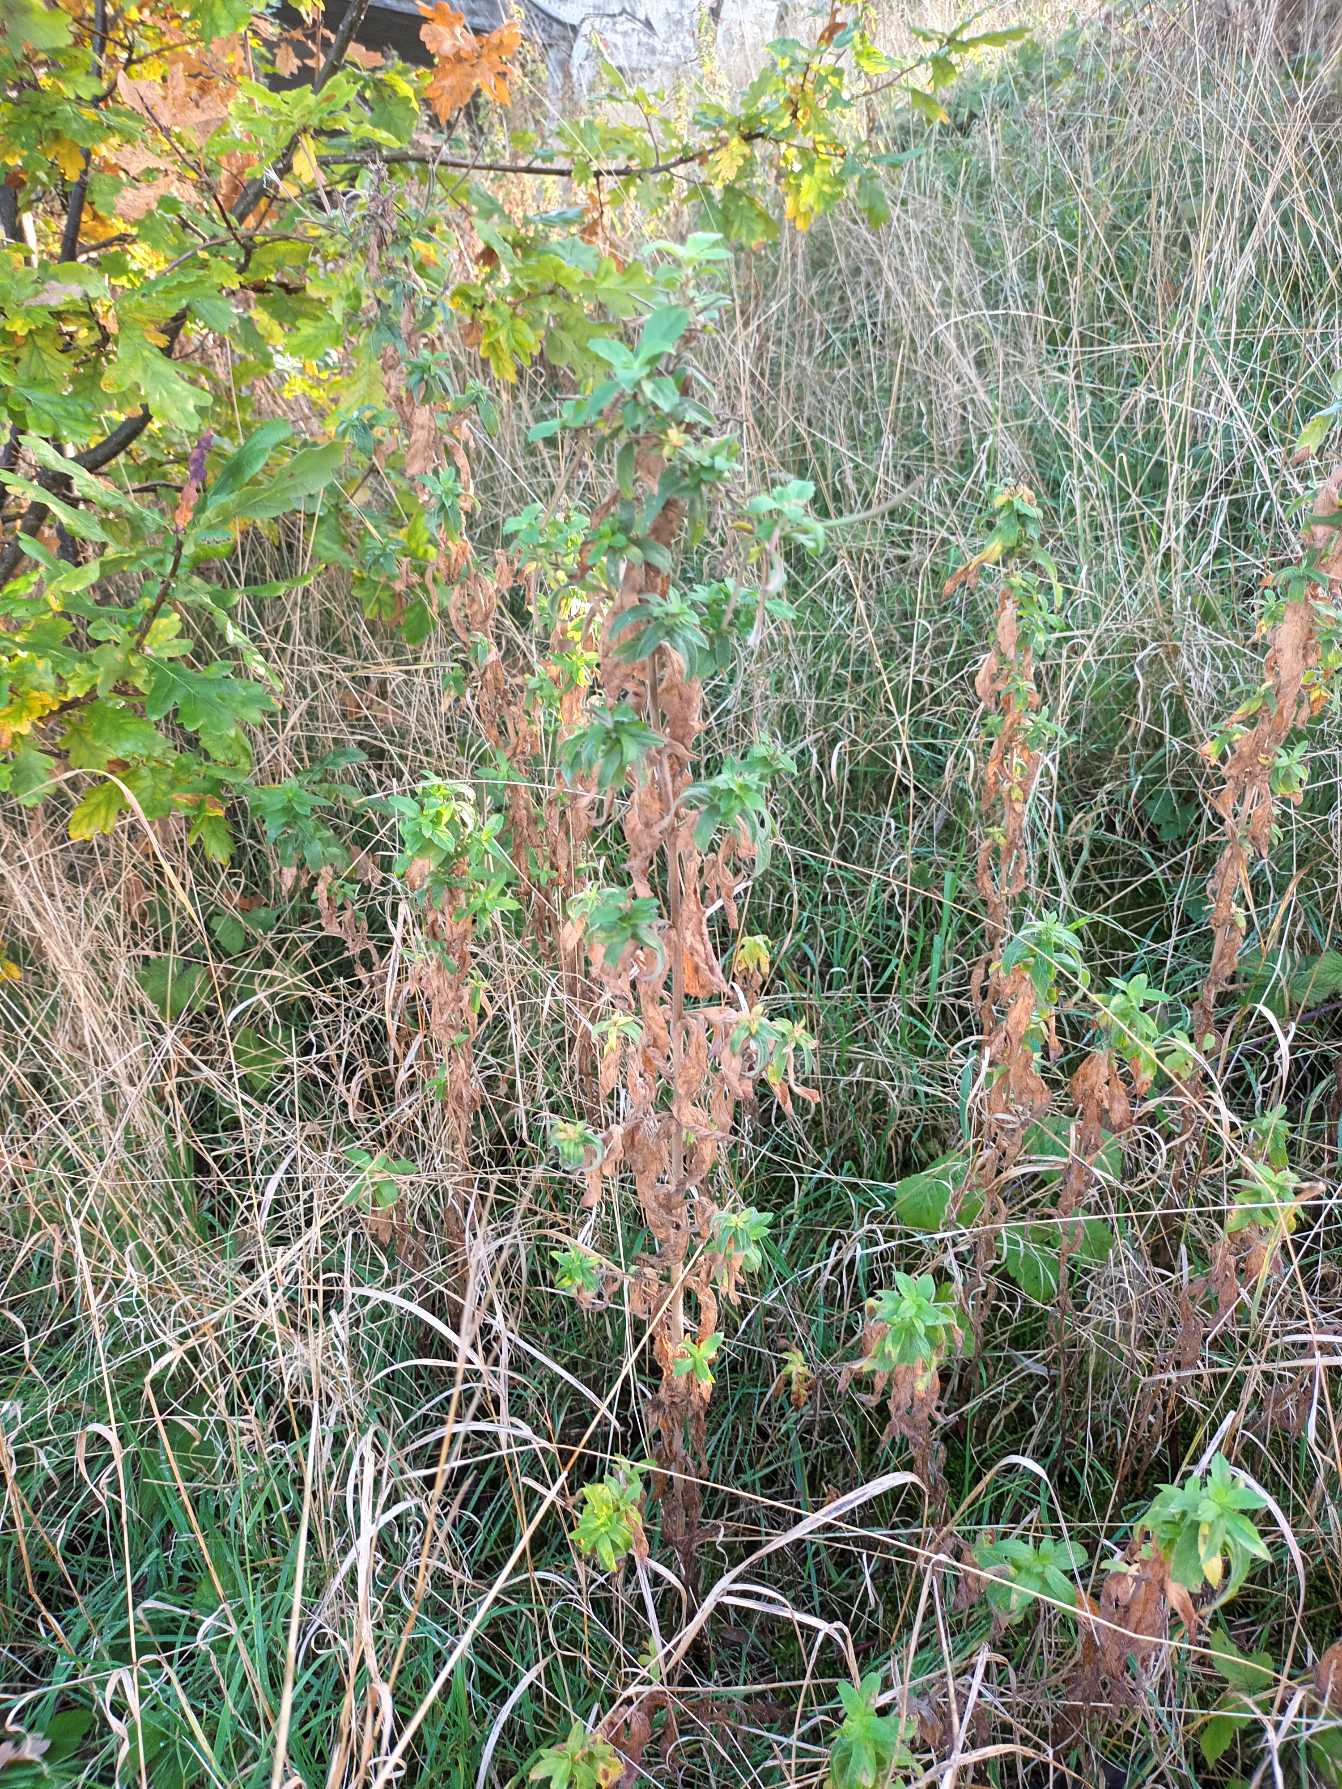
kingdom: Plantae
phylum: Tracheophyta
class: Magnoliopsida
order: Myrtales
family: Onagraceae
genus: Epilobium
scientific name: Epilobium hirsutum
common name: Lådden dueurt
